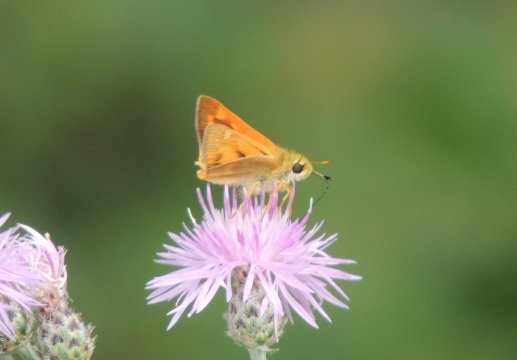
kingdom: Animalia
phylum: Arthropoda
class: Insecta
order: Lepidoptera
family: Hesperiidae
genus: Ochlodes
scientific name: Ochlodes sylvanoides
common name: Woodland Skipper
